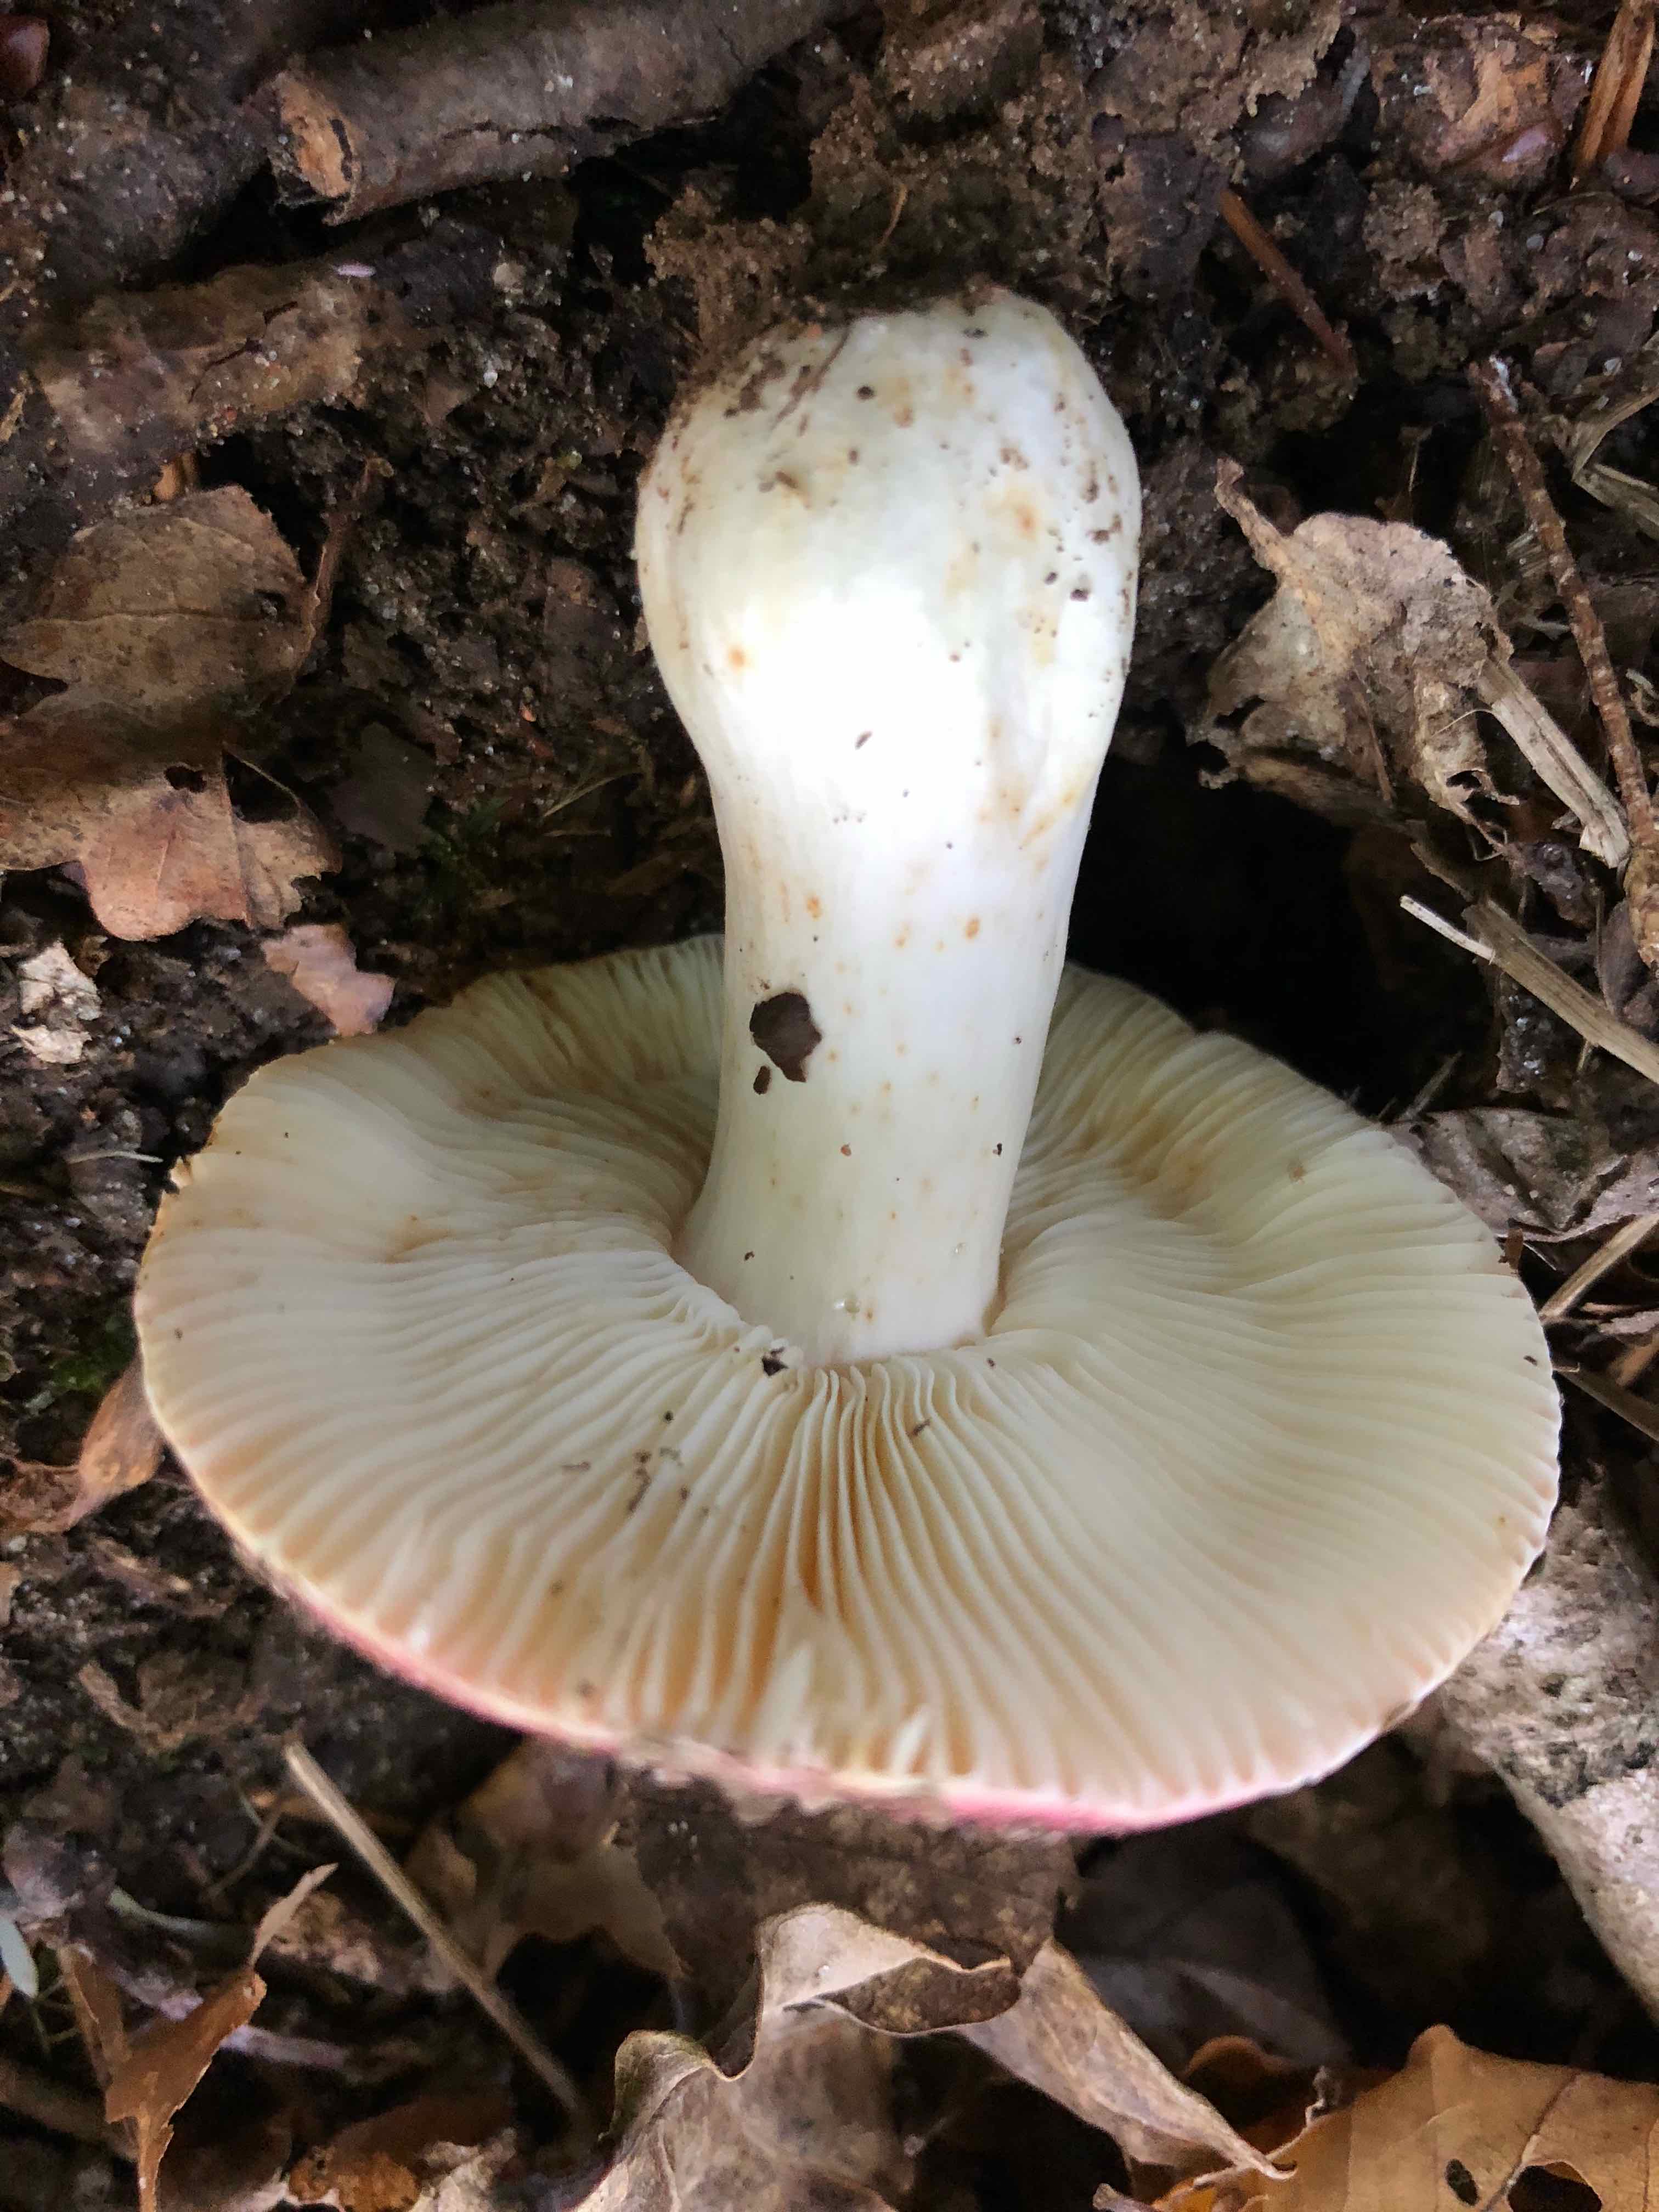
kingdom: Fungi
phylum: Basidiomycota
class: Agaricomycetes
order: Russulales
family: Russulaceae
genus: Russula
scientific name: Russula
